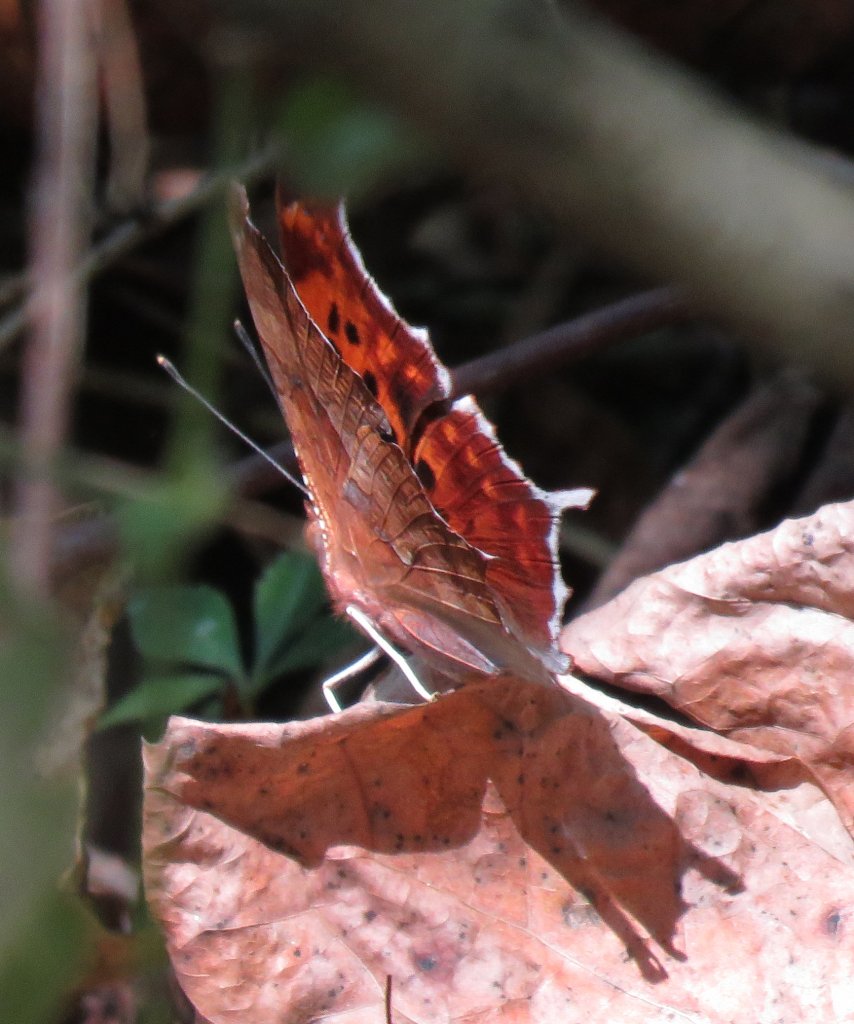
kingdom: Animalia
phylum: Arthropoda
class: Insecta
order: Lepidoptera
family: Nymphalidae
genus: Polygonia
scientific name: Polygonia interrogationis
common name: Question Mark
